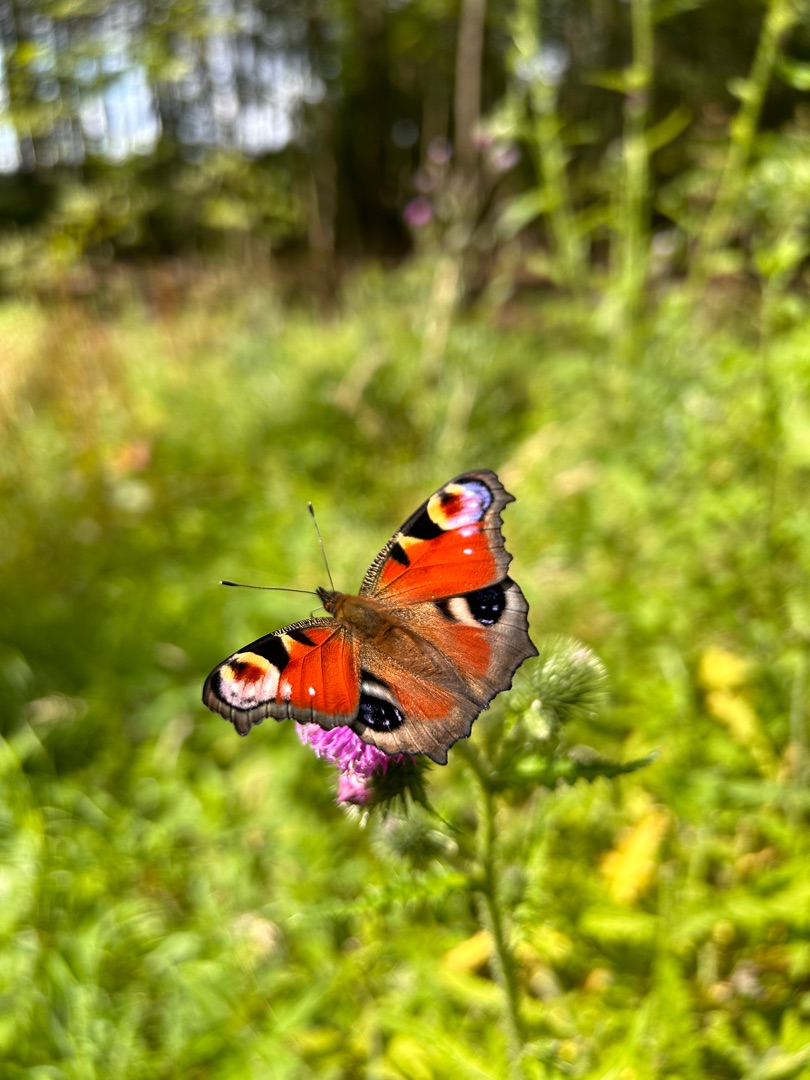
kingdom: Animalia
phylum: Arthropoda
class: Insecta
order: Lepidoptera
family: Nymphalidae
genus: Aglais
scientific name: Aglais io
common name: Dagpåfugleøje
